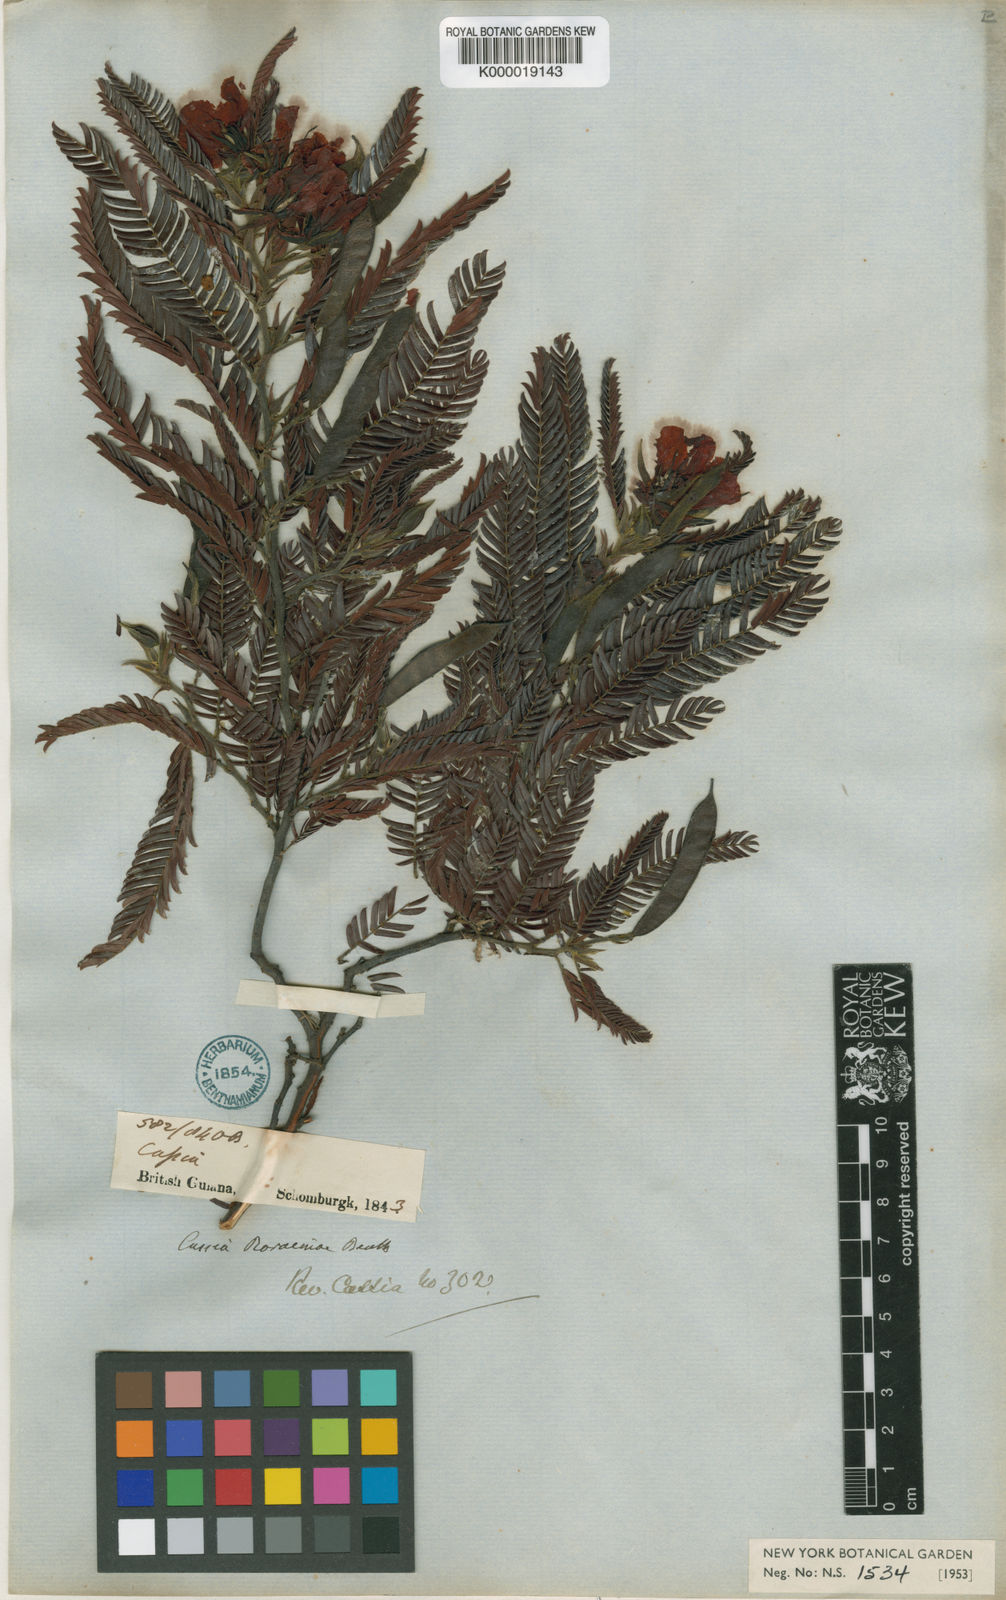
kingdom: Plantae
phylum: Tracheophyta
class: Magnoliopsida
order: Fabales
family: Fabaceae
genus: Chamaecrista
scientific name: Chamaecrista roraimae
